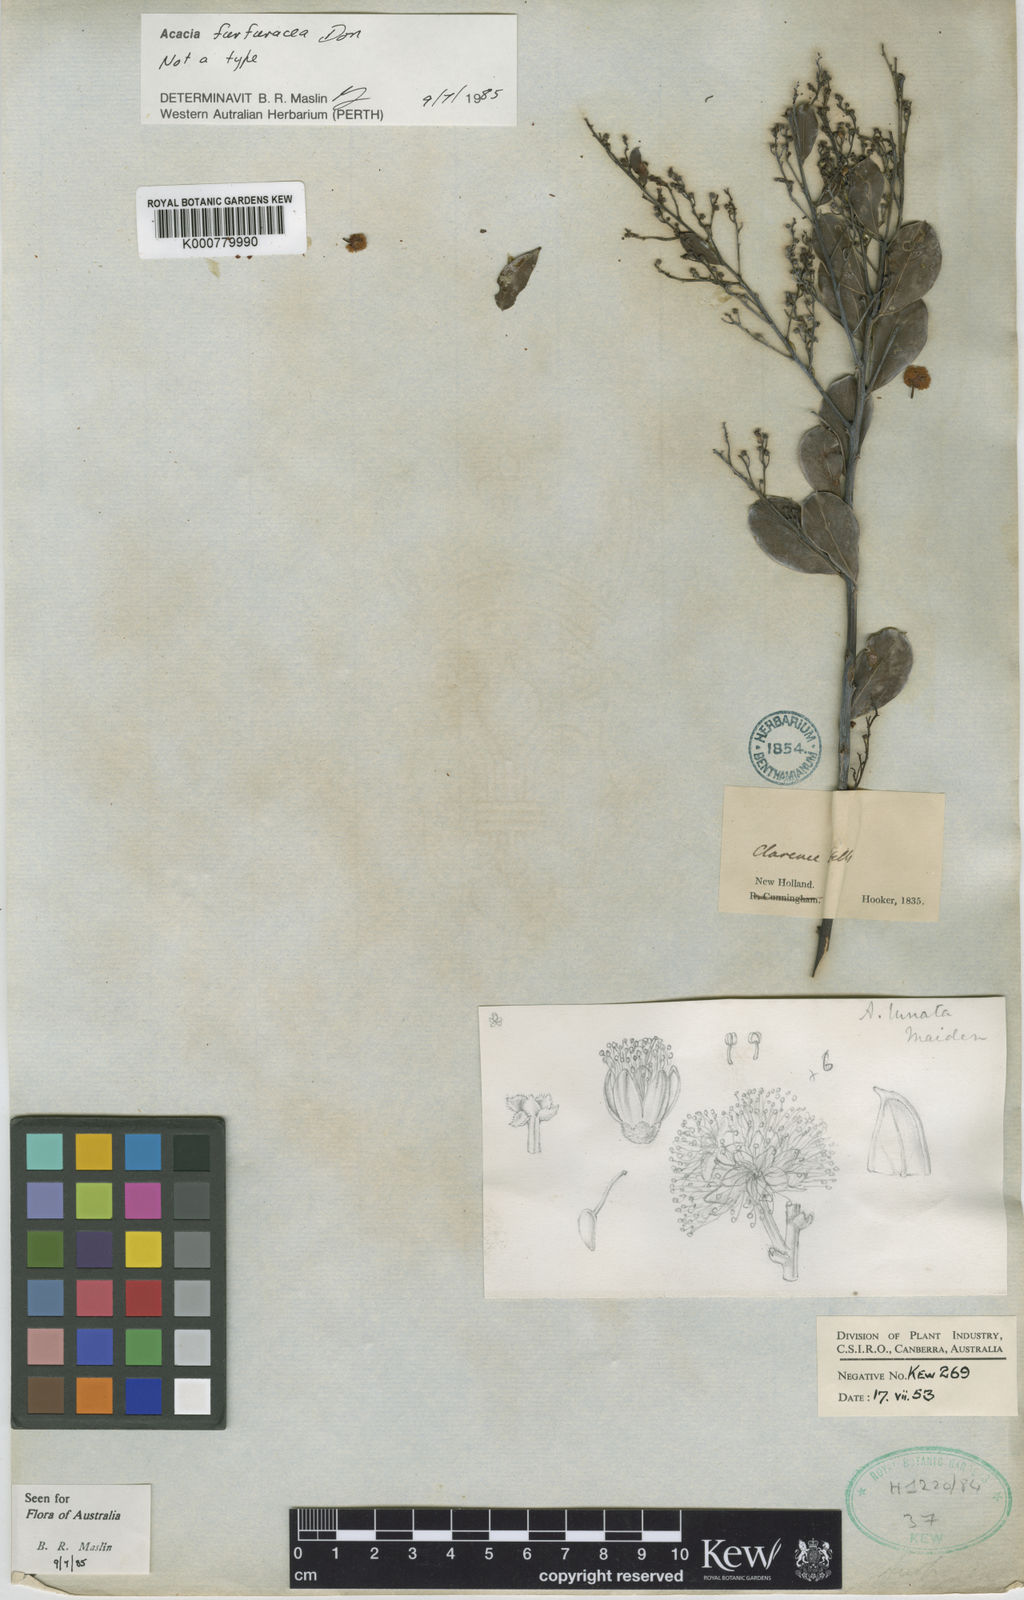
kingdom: Plantae
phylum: Tracheophyta
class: Magnoliopsida
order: Fabales
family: Fabaceae
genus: Acacia
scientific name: Acacia
